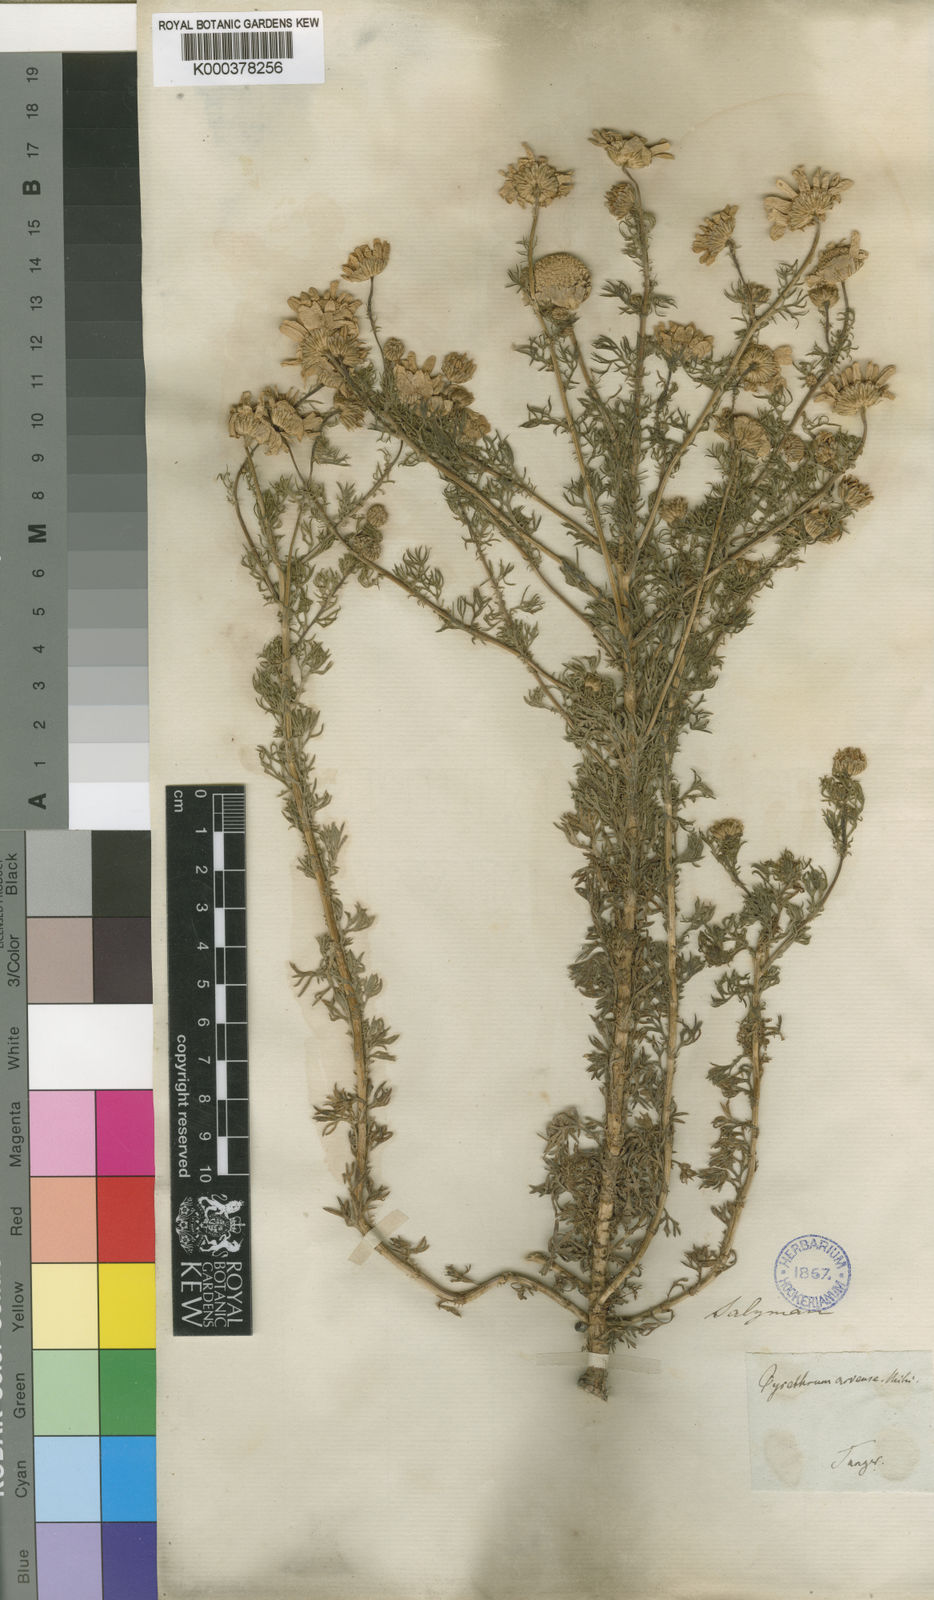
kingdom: Plantae
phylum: Tracheophyta
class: Magnoliopsida
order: Asterales
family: Asteraceae
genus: Gibbaria
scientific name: Gibbaria glabra
